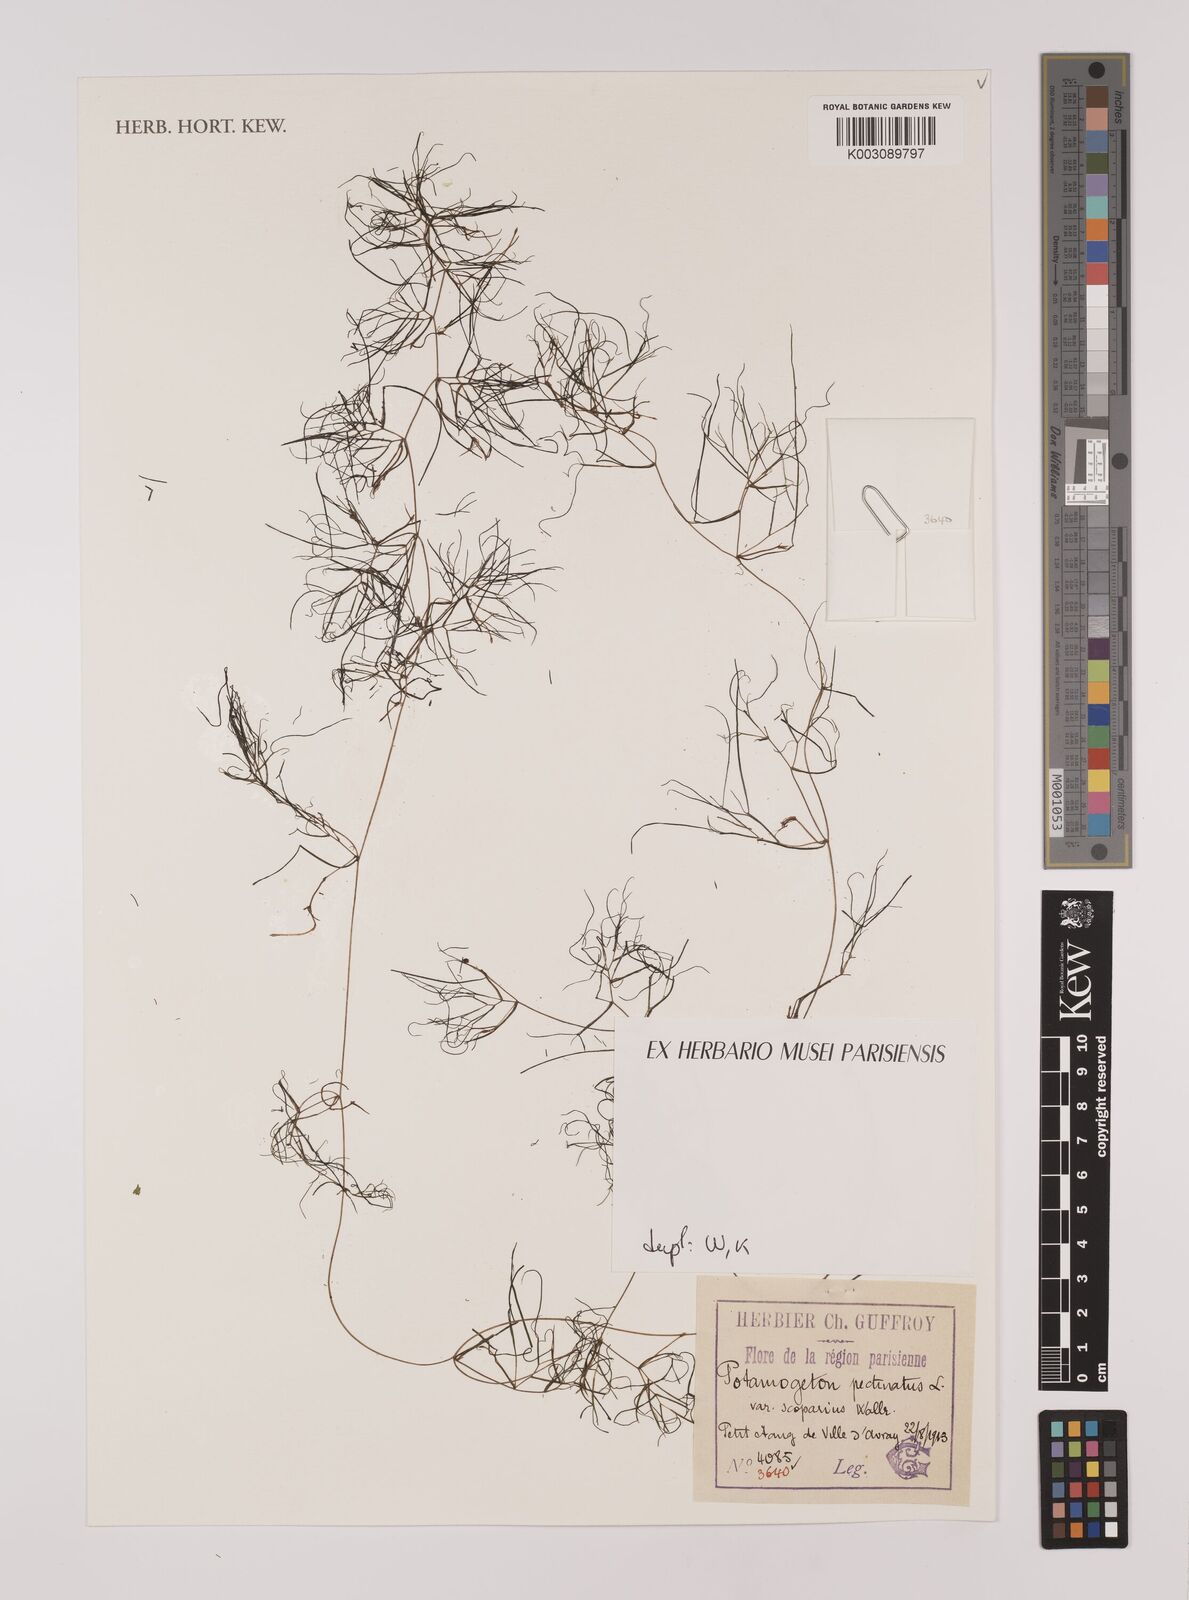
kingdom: Plantae
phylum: Tracheophyta
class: Liliopsida
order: Alismatales
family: Potamogetonaceae
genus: Stuckenia
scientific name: Stuckenia pectinata
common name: Sago pondweed
